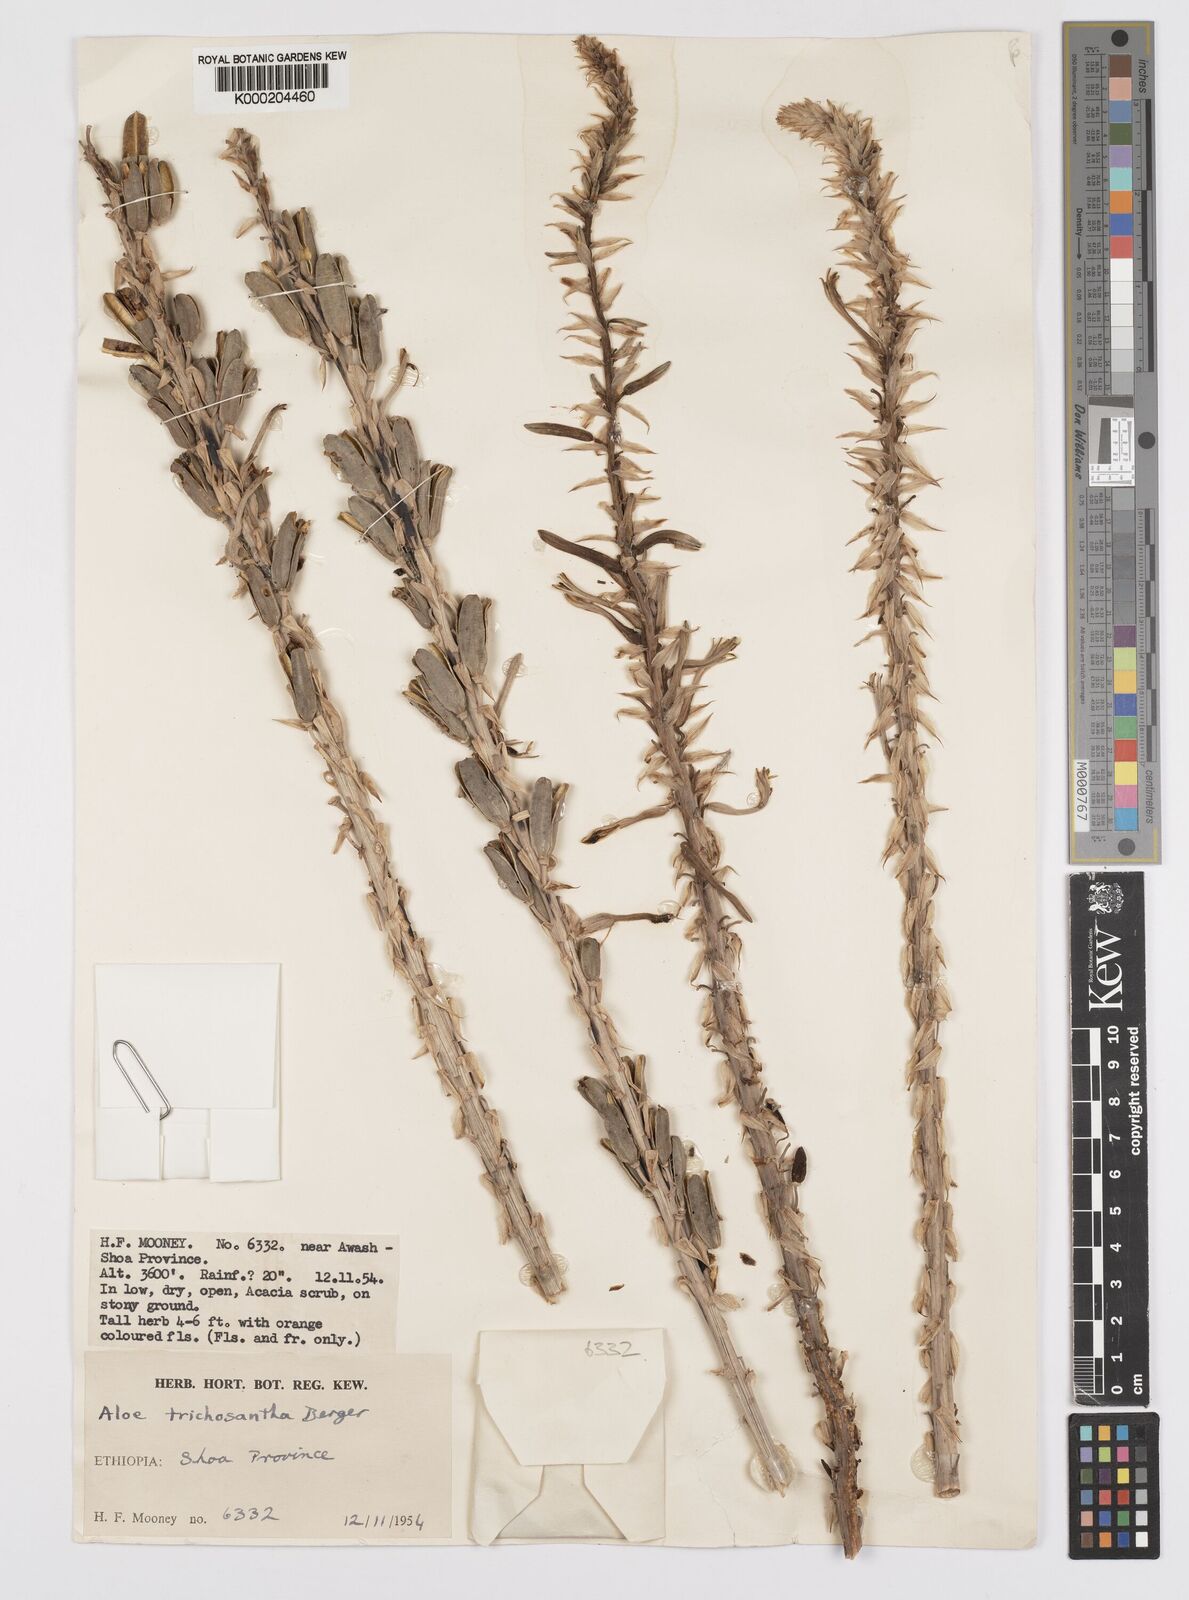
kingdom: Plantae
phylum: Tracheophyta
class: Liliopsida
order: Asparagales
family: Asphodelaceae
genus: Aloe
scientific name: Aloe trichosantha
